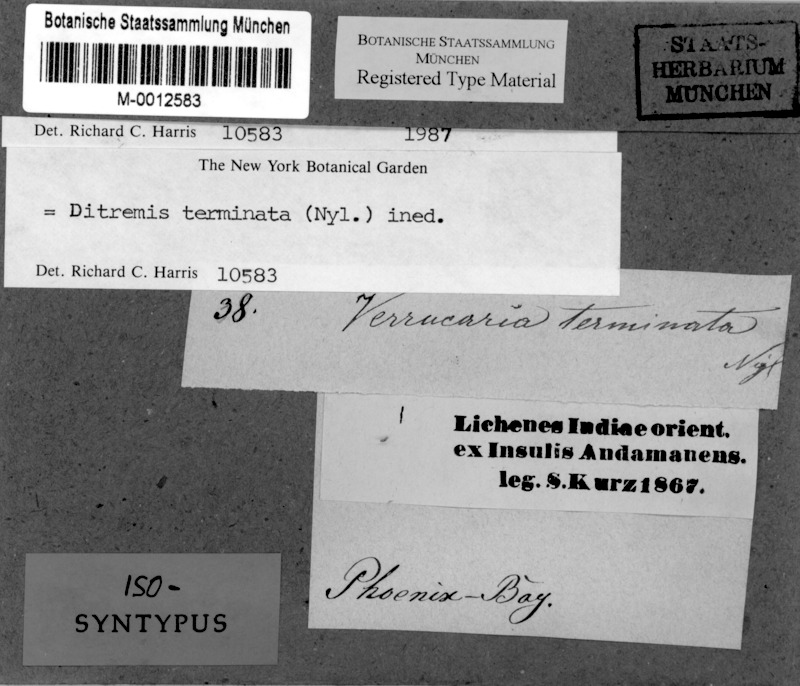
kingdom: Fungi
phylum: Ascomycota
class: Dothideomycetes
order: Monoblastiales
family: Monoblastiaceae
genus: Anisomeridium
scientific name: Anisomeridium terminatum
